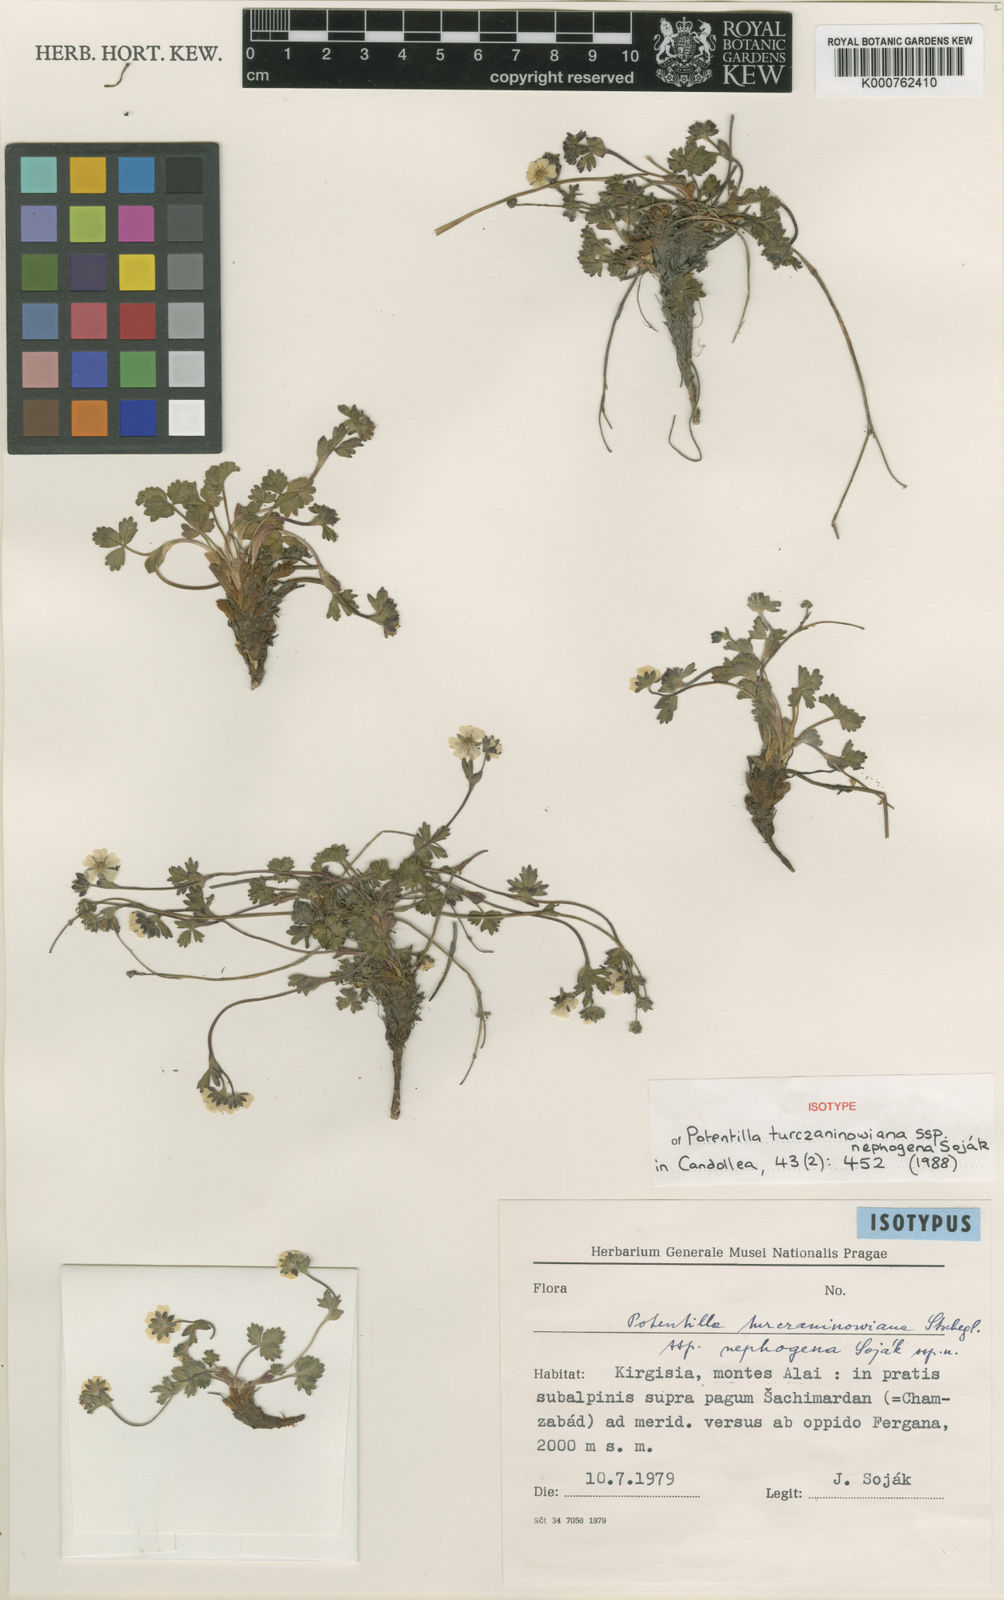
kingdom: Plantae
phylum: Tracheophyta
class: Magnoliopsida
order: Rosales
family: Rosaceae
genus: Potentilla
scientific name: Potentilla turczaninowiana
